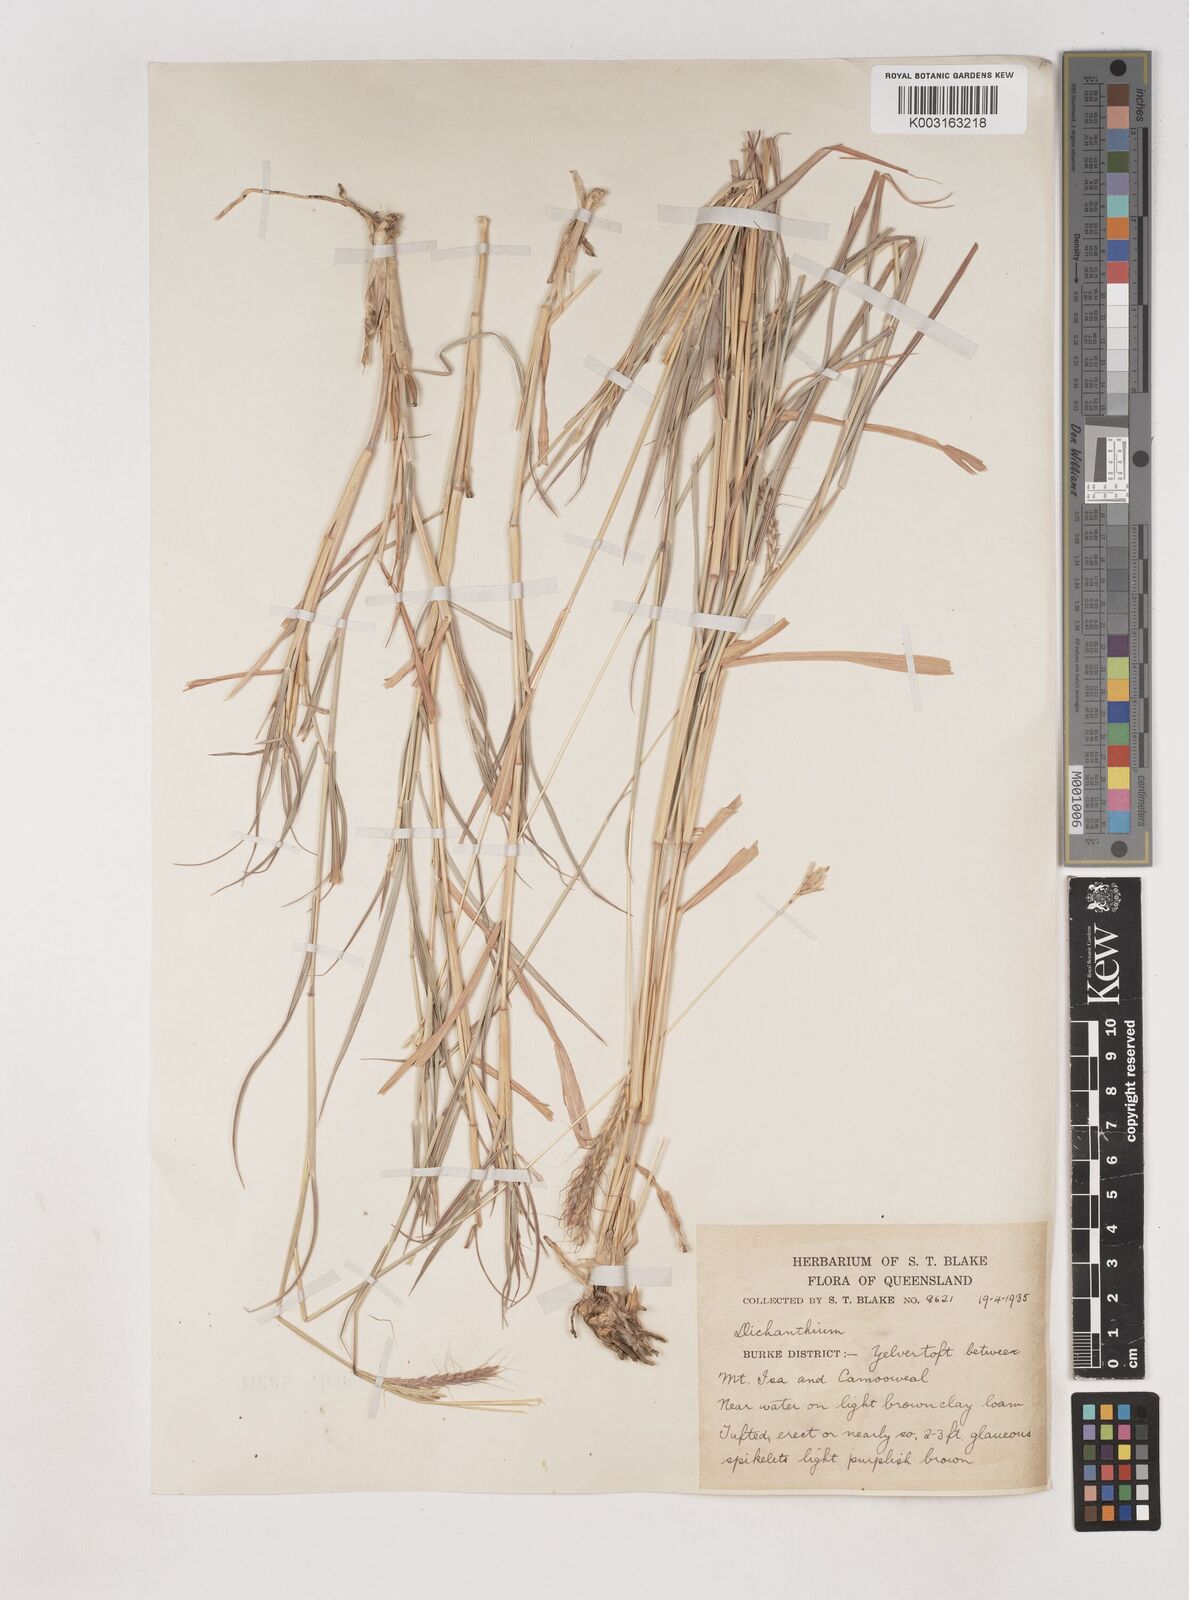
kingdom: Plantae
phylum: Tracheophyta
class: Liliopsida
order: Poales
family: Poaceae
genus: Dichanthium
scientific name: Dichanthium fecundum
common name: Bundle-bundle
